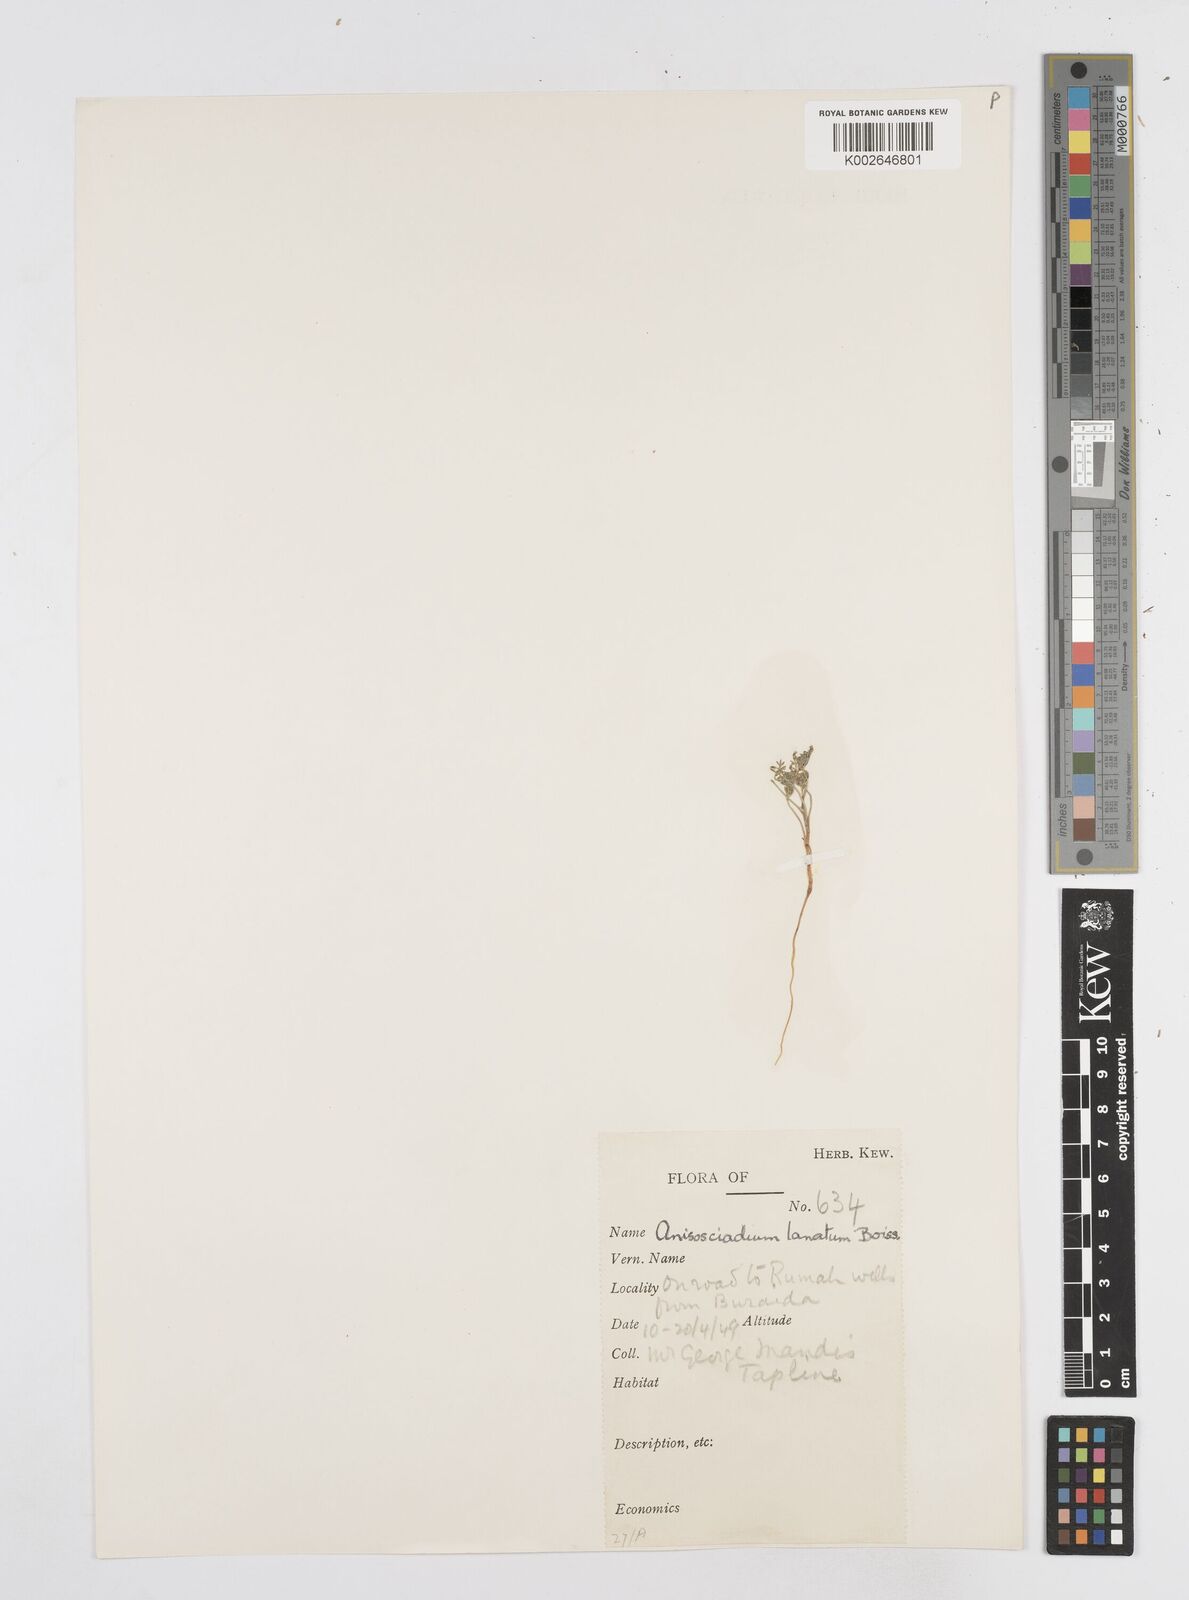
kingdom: Plantae
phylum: Tracheophyta
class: Magnoliopsida
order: Apiales
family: Apiaceae
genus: Anisosciadium
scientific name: Anisosciadium lanatum
